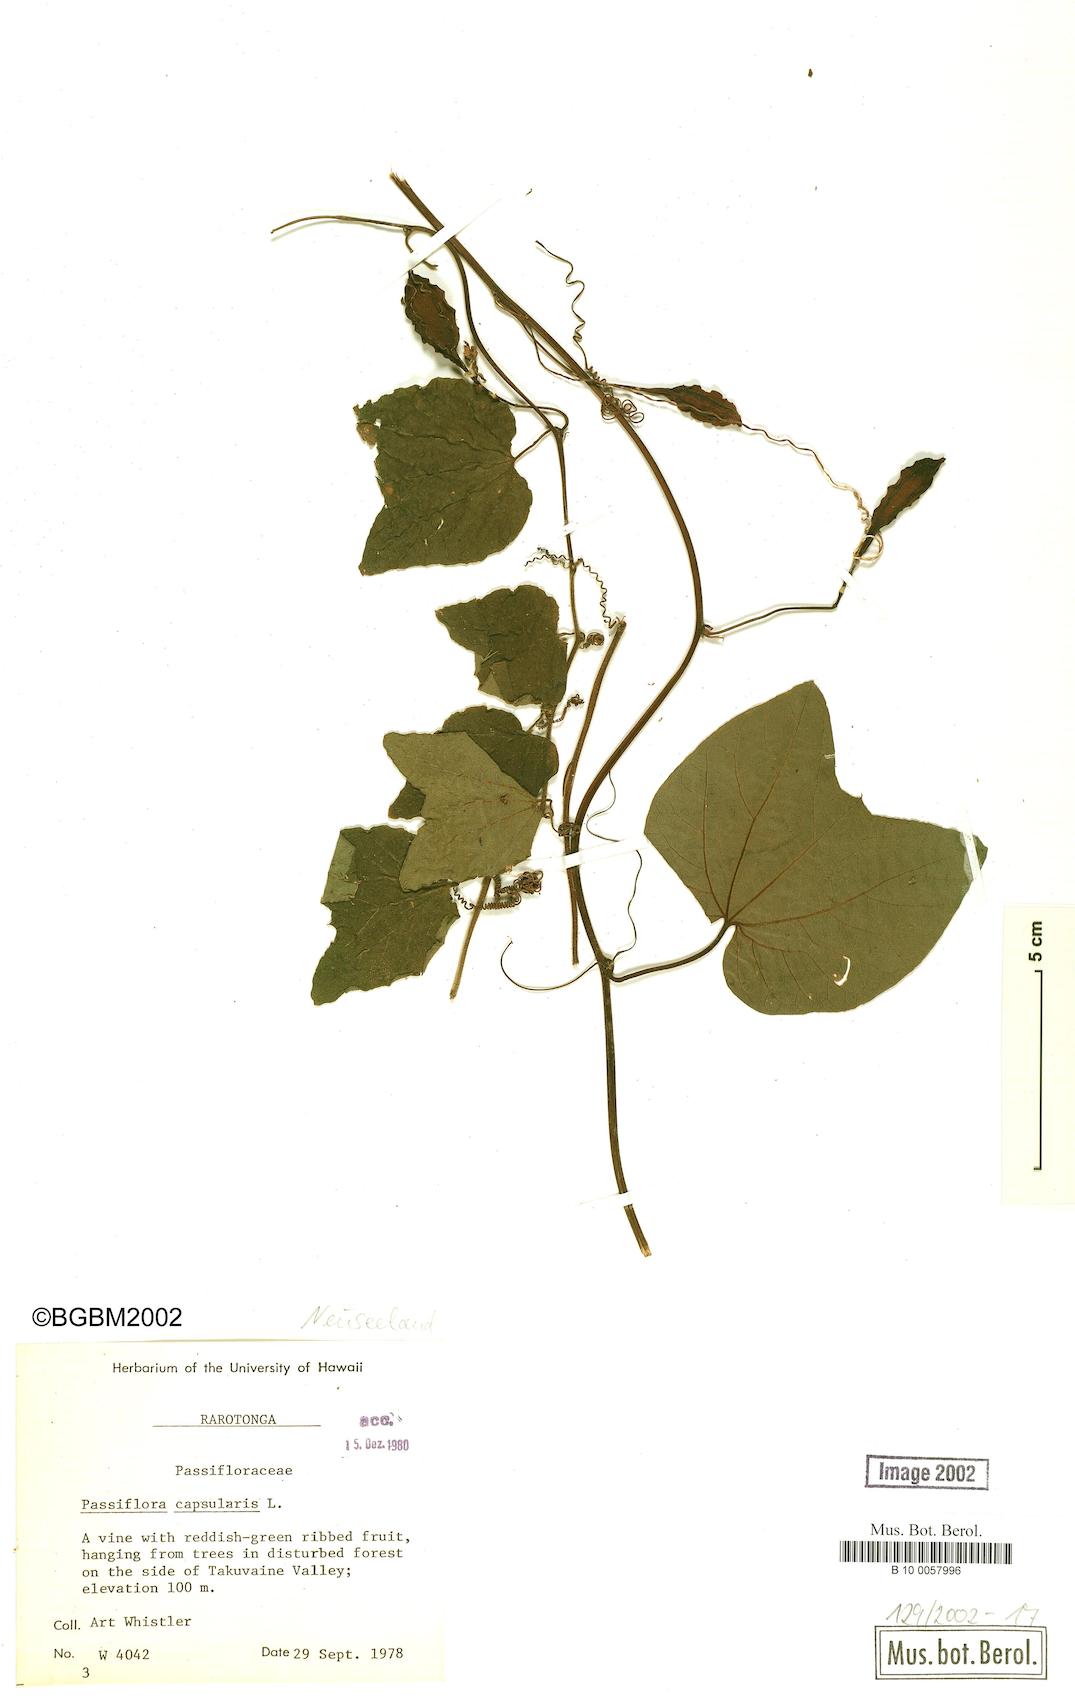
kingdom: Plantae
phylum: Tracheophyta
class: Magnoliopsida
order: Malpighiales
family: Passifloraceae
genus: Passiflora
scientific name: Passiflora capsularis
